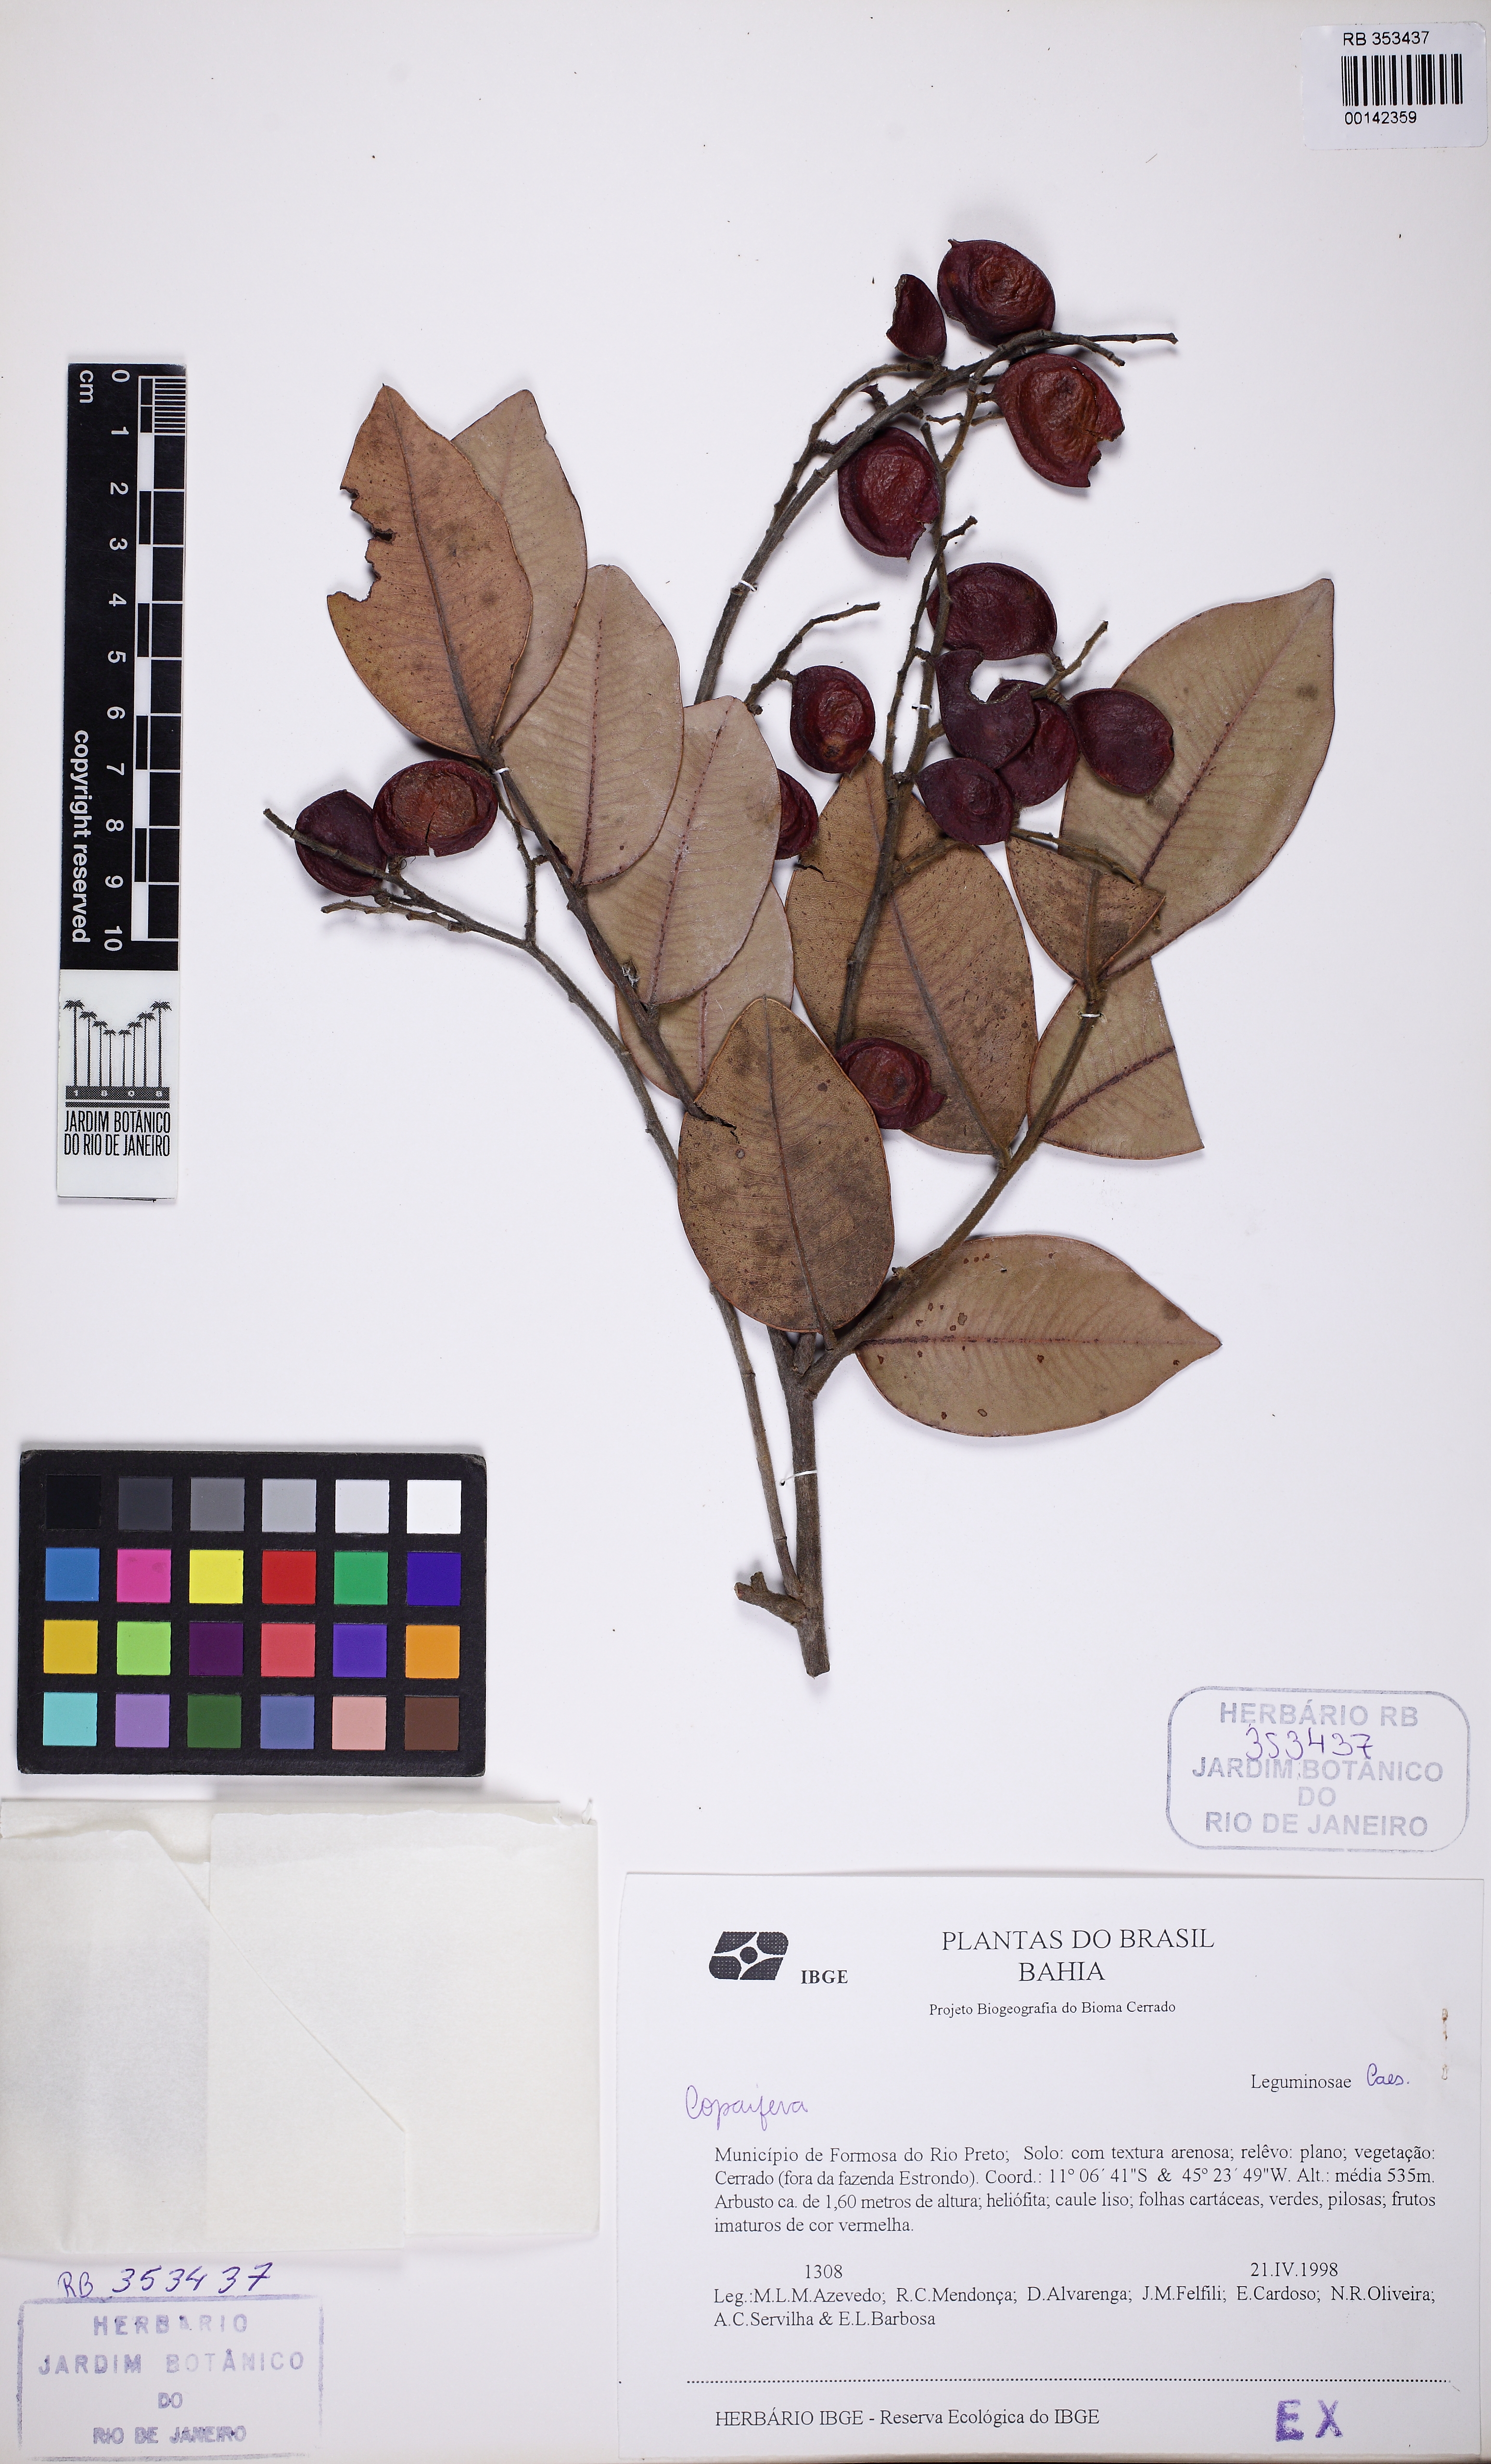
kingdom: Plantae
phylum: Tracheophyta
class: Magnoliopsida
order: Fabales
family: Fabaceae
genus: Copaifera
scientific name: Copaifera
